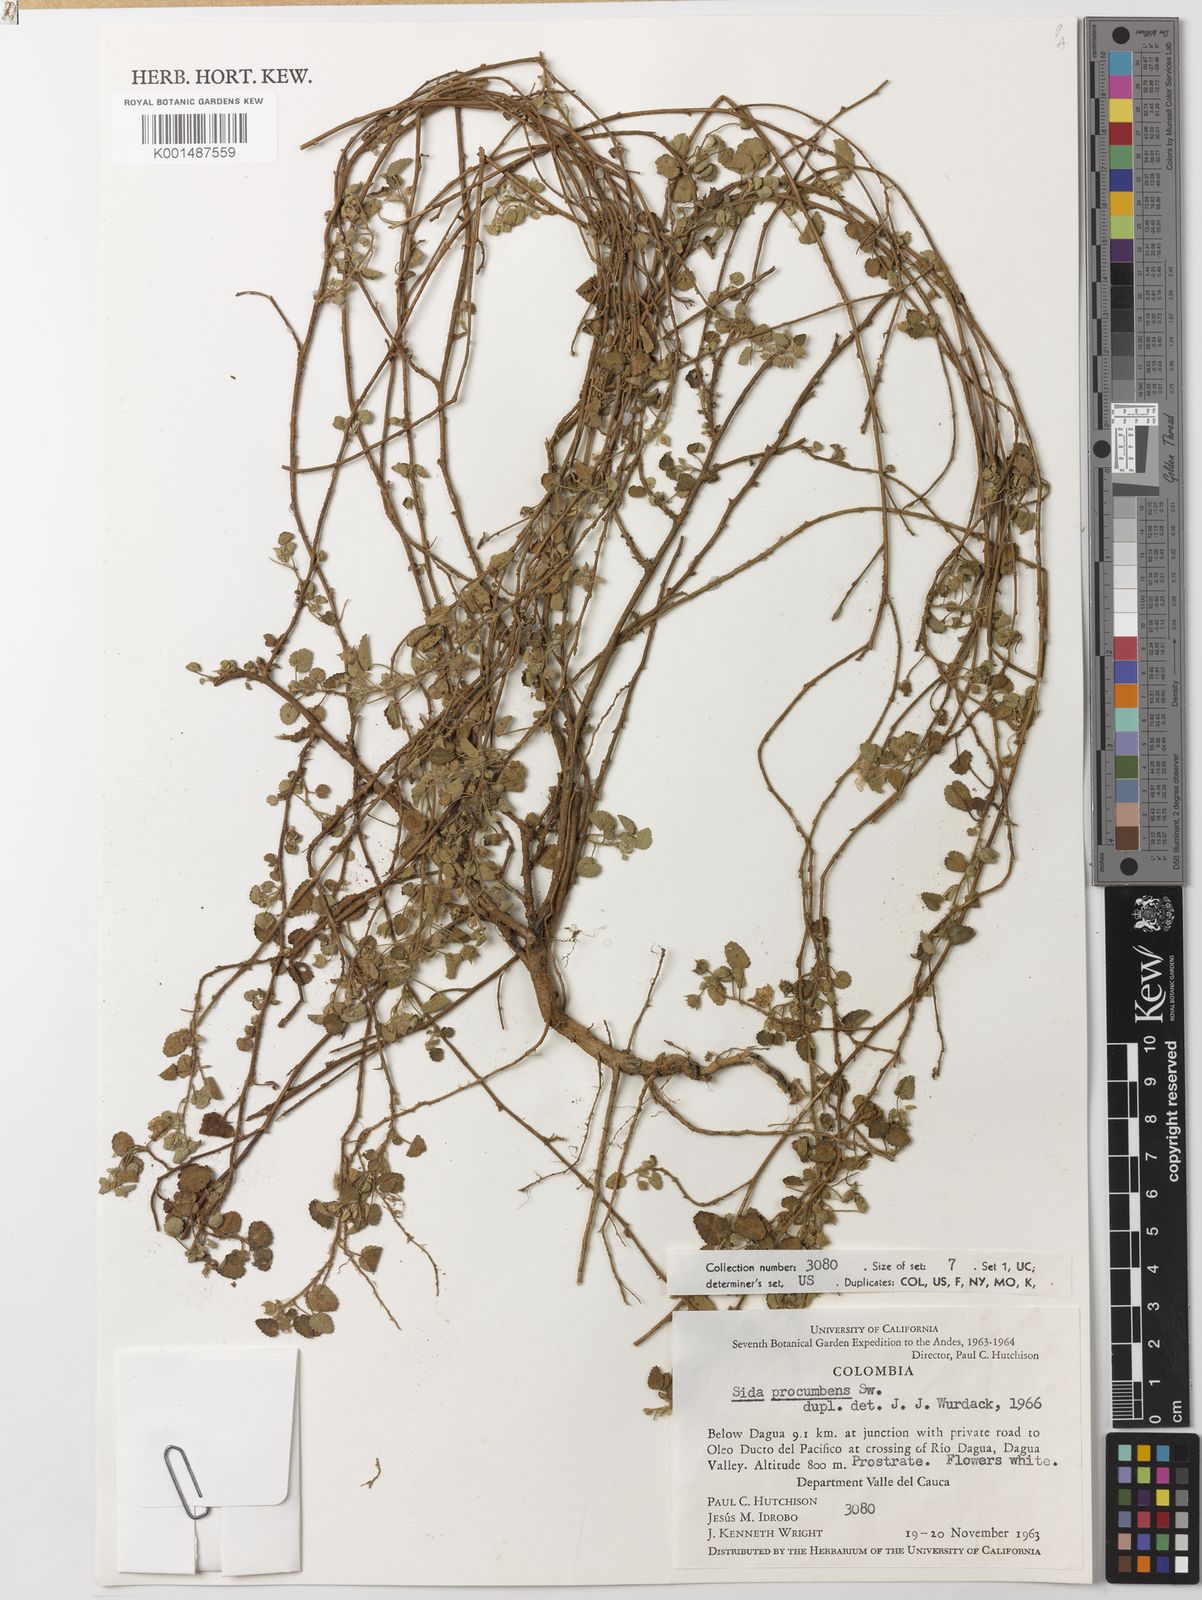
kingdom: Plantae
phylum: Tracheophyta
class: Magnoliopsida
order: Malvales
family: Malvaceae
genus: Sida
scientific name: Sida abutilifolia
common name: Spreading fanpetals
